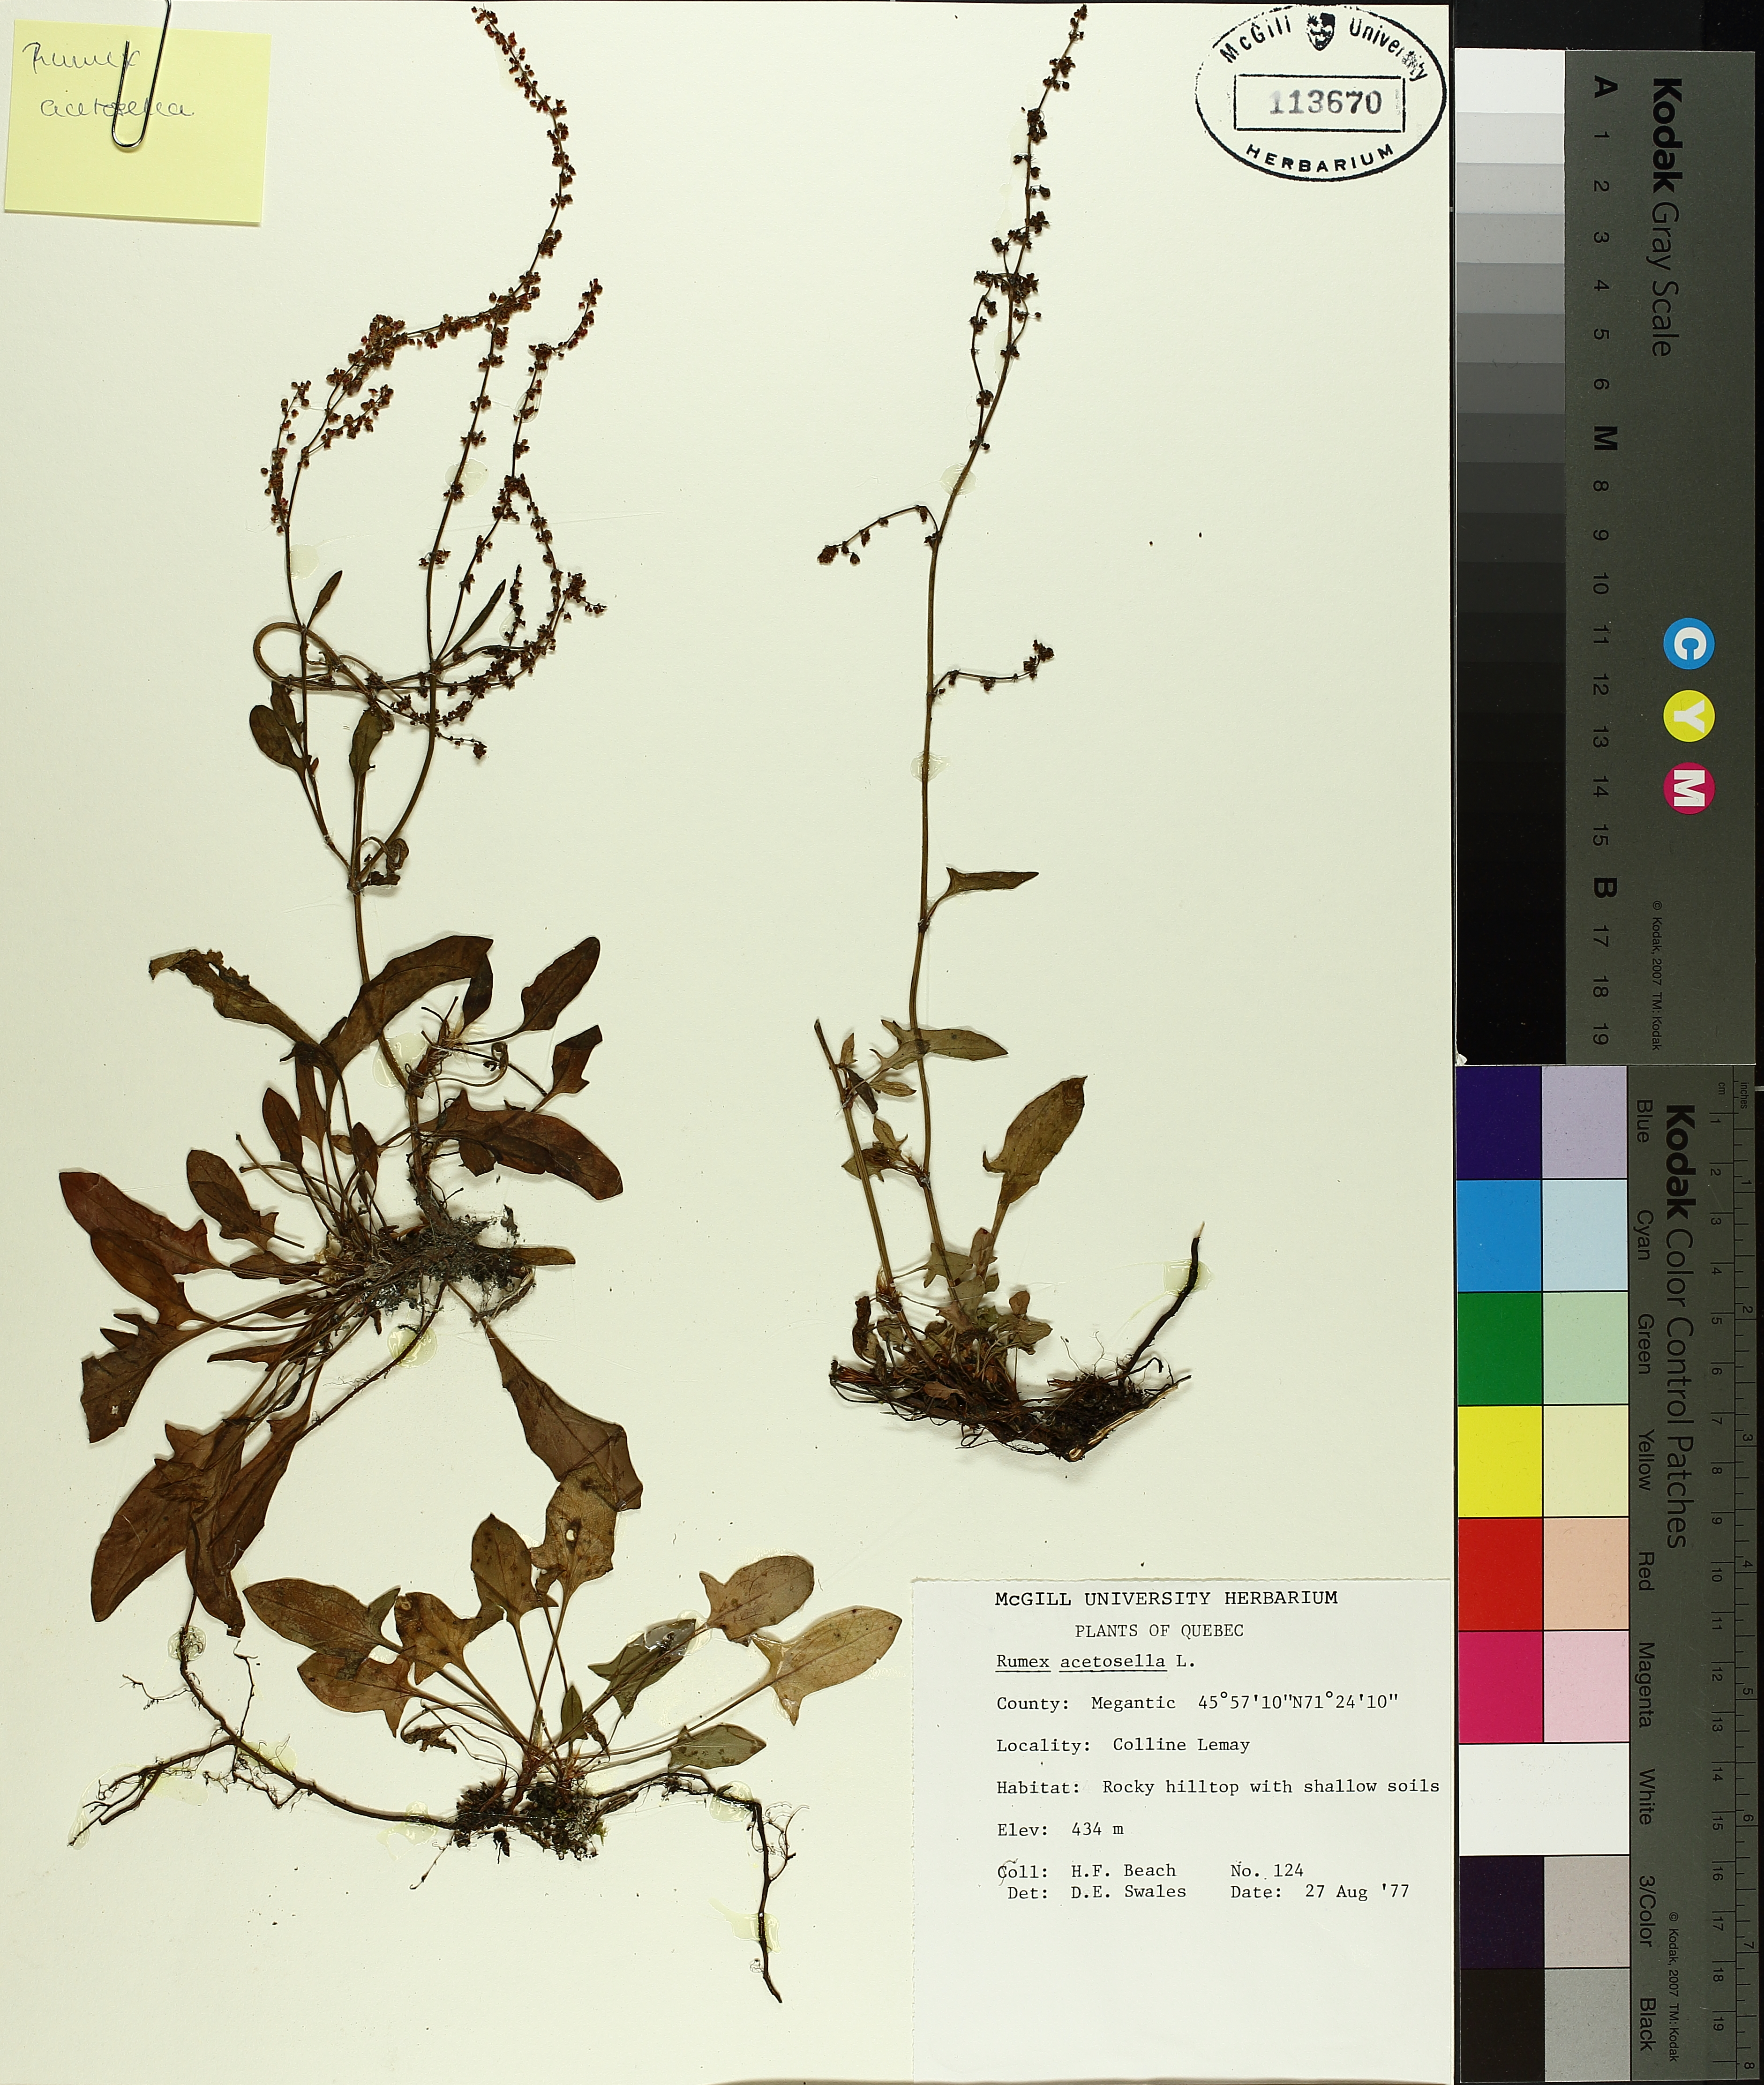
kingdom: Plantae
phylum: Tracheophyta
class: Magnoliopsida
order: Caryophyllales
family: Polygonaceae
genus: Rumex
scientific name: Rumex acetosella
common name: Common sheep sorrel
